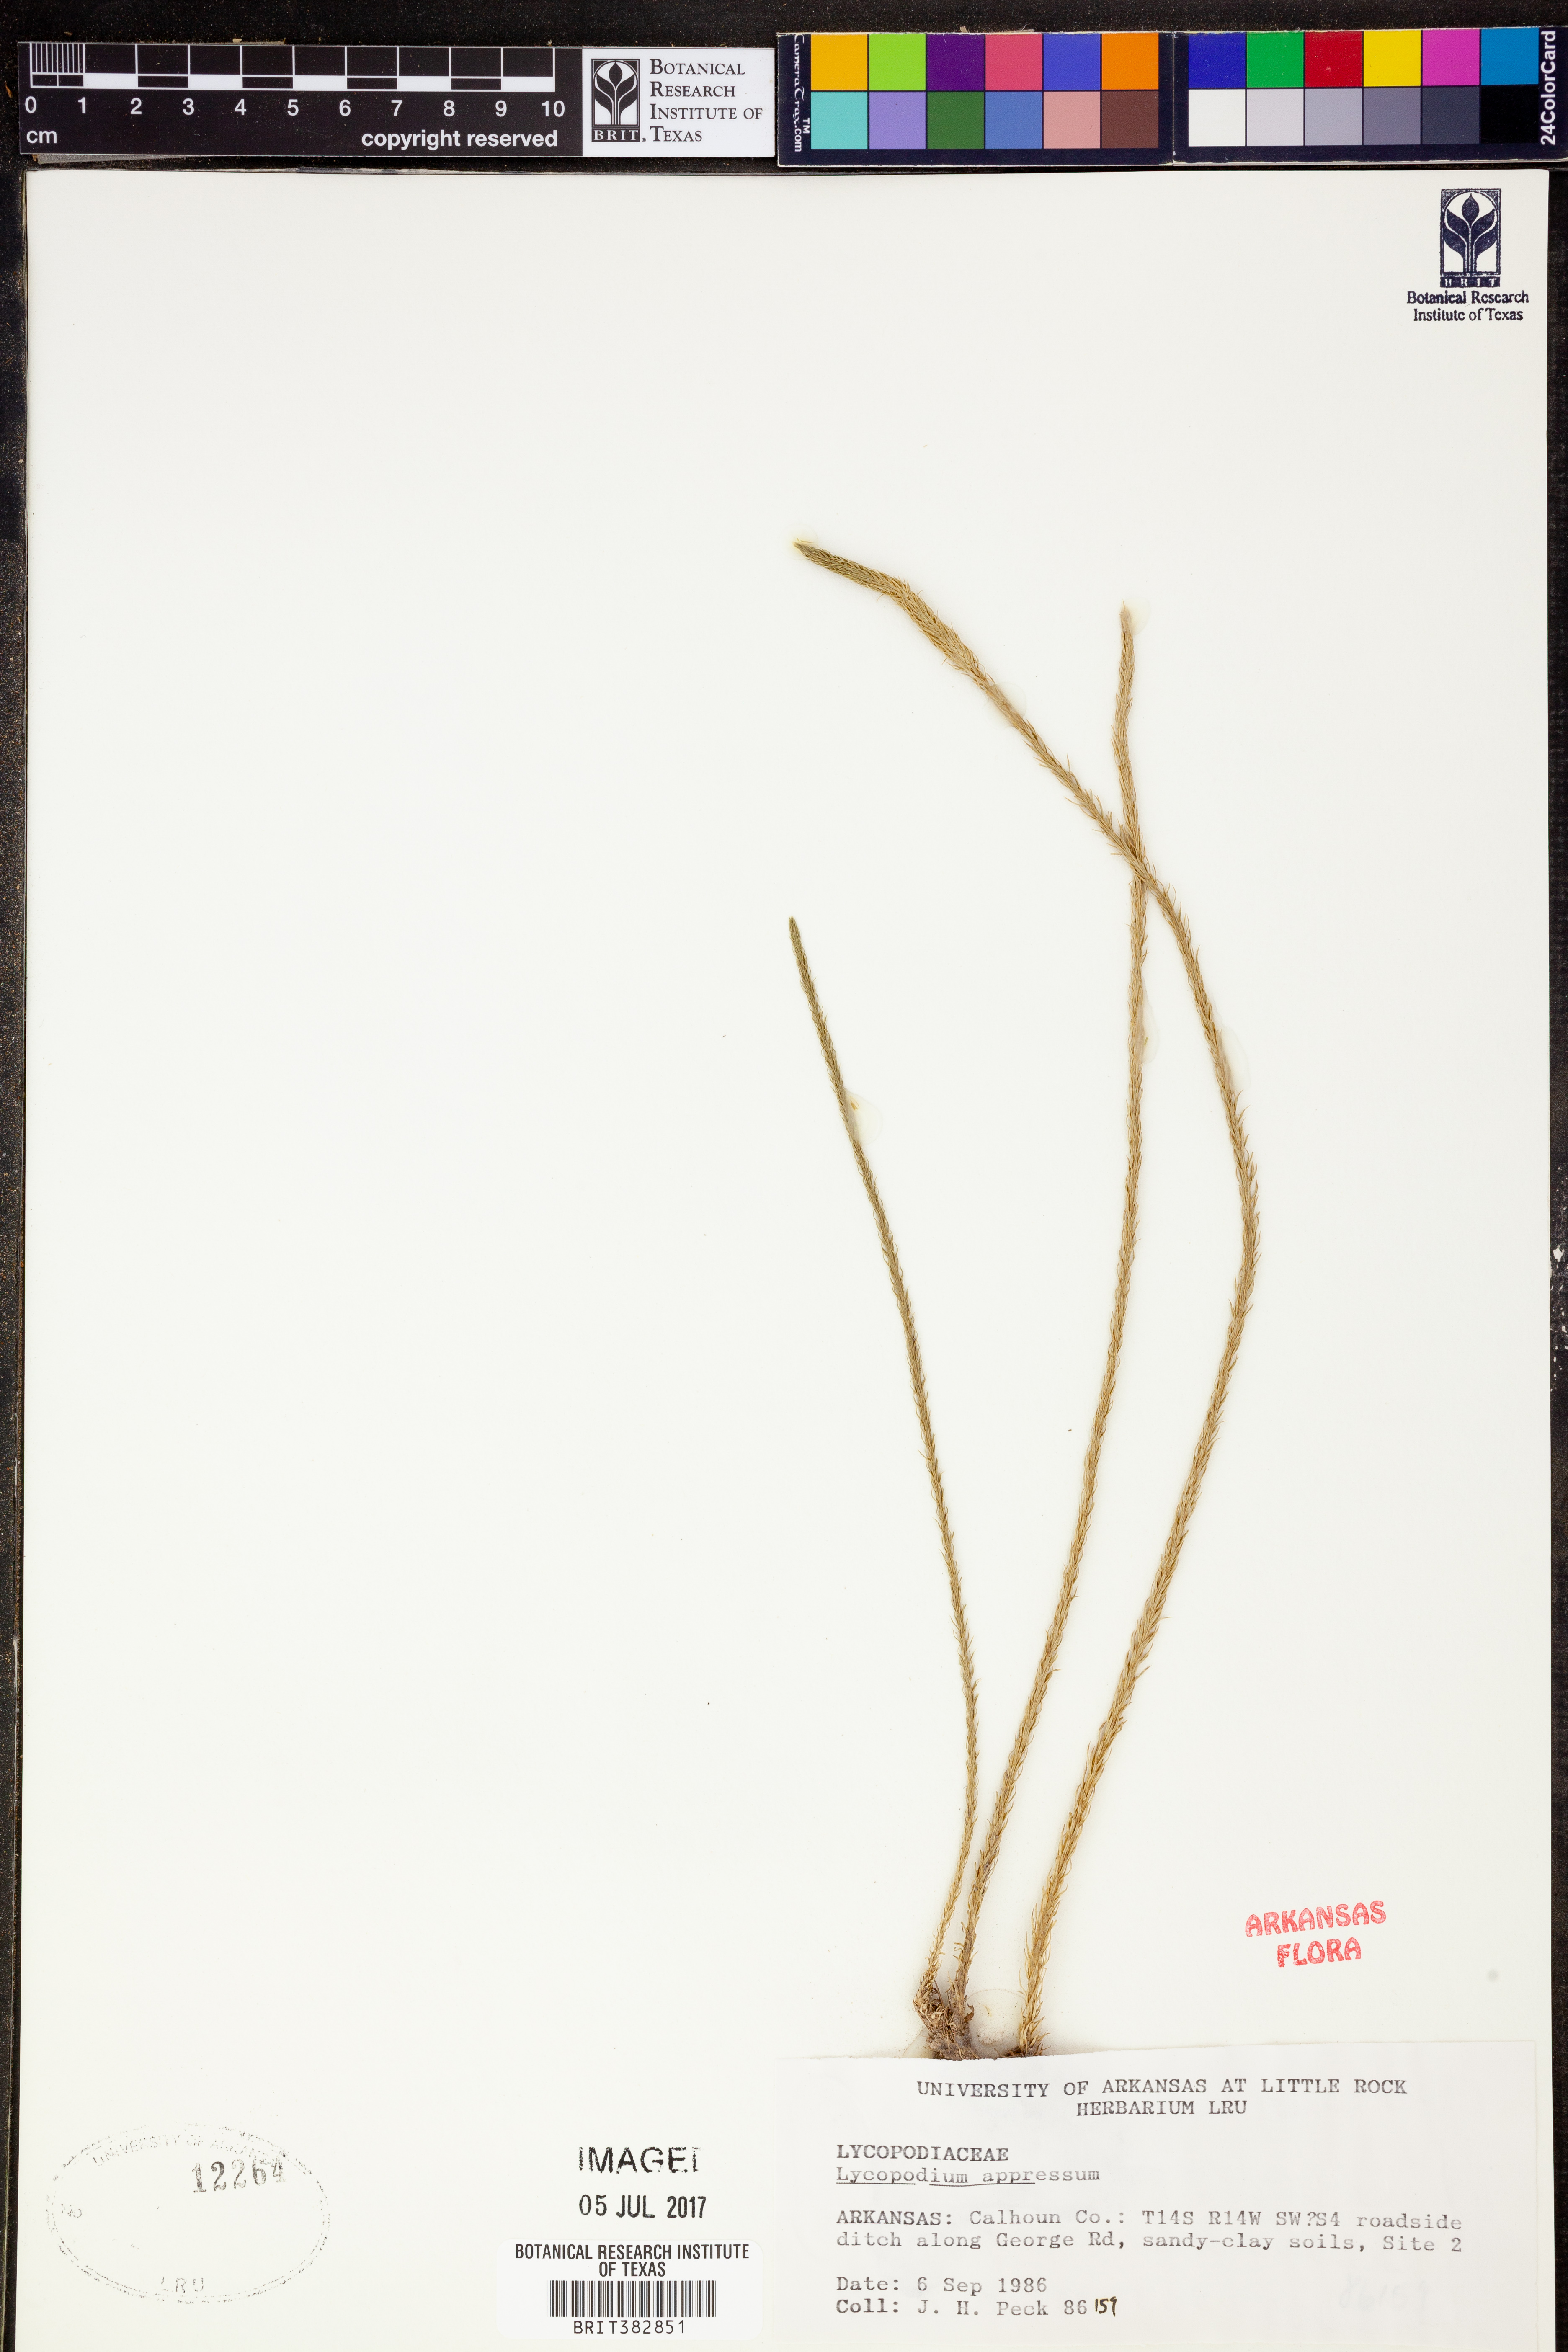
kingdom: Plantae
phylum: Tracheophyta
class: Lycopodiopsida
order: Lycopodiales
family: Lycopodiaceae
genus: Lycopodiella
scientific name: Lycopodiella appressa
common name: Appressed bog clubmoss
